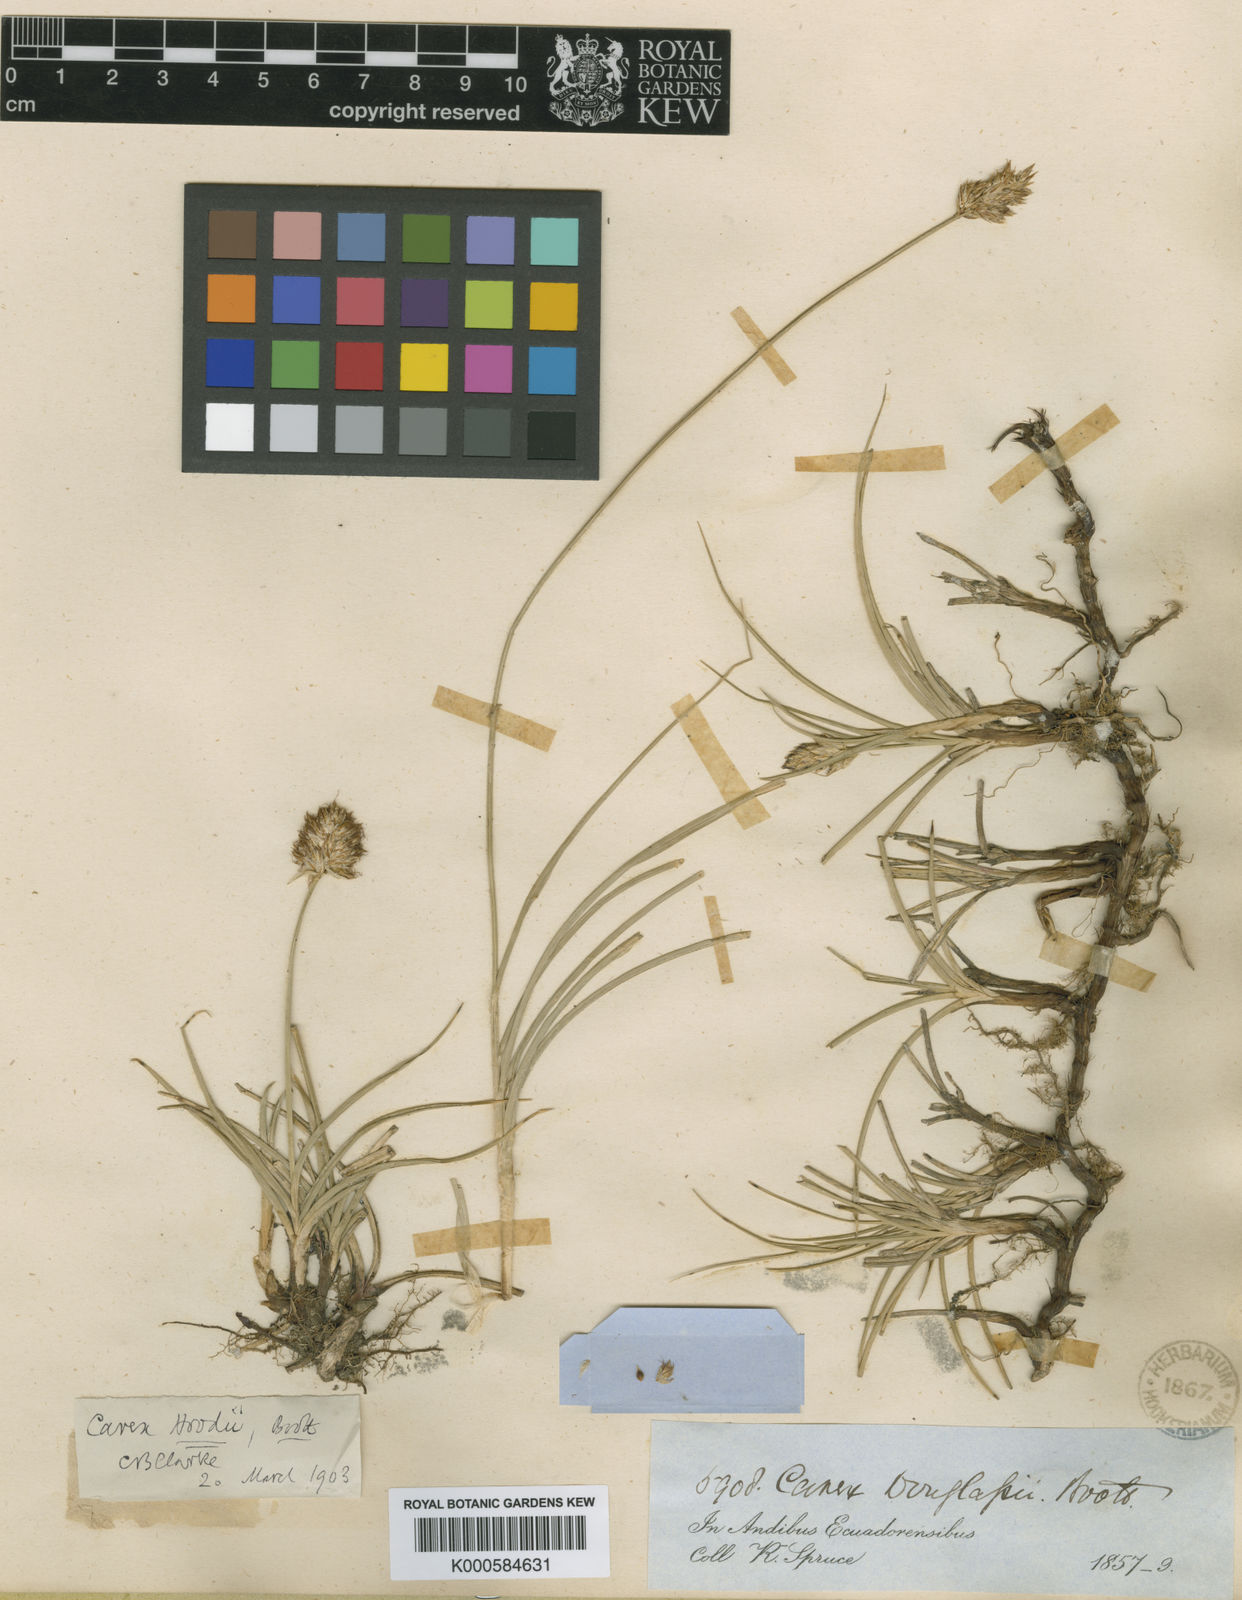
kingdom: Plantae
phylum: Tracheophyta
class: Liliopsida
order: Poales
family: Cyperaceae
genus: Carex
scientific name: Carex
